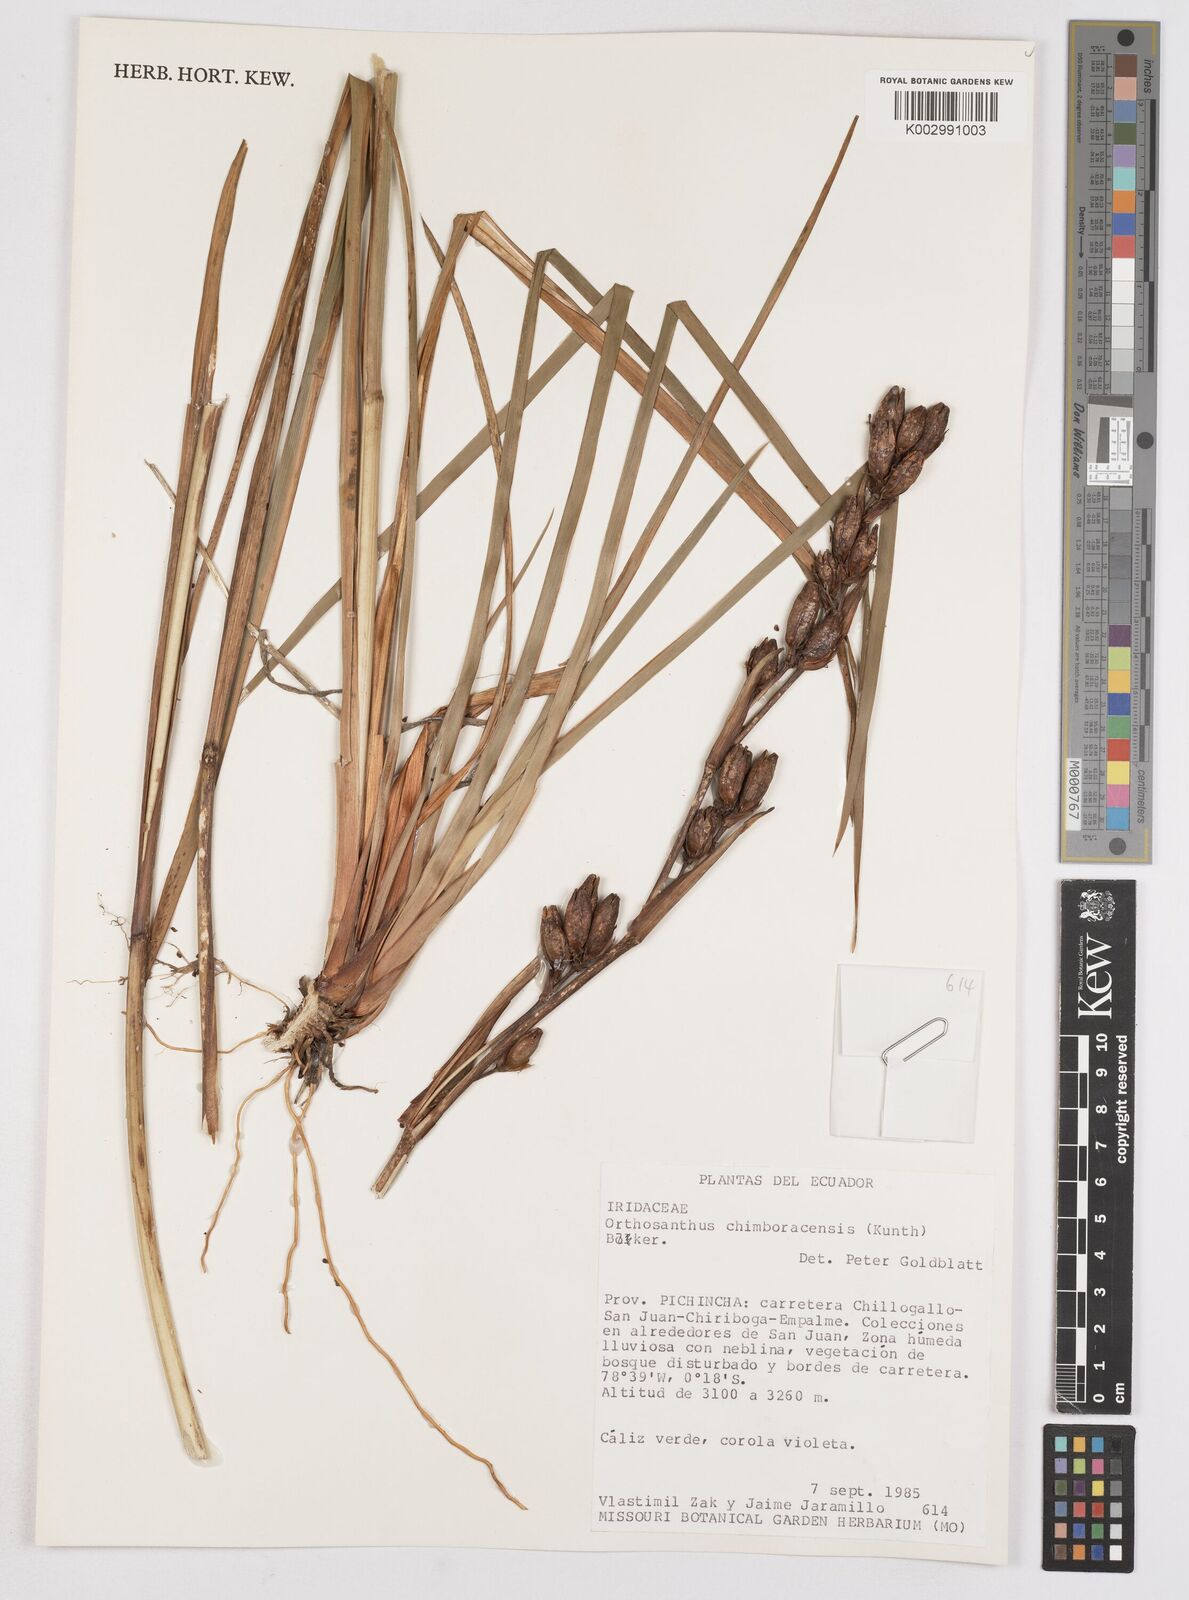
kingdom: Plantae
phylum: Tracheophyta
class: Liliopsida
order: Asparagales
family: Iridaceae
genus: Orthrosanthus
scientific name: Orthrosanthus chimboracensis
